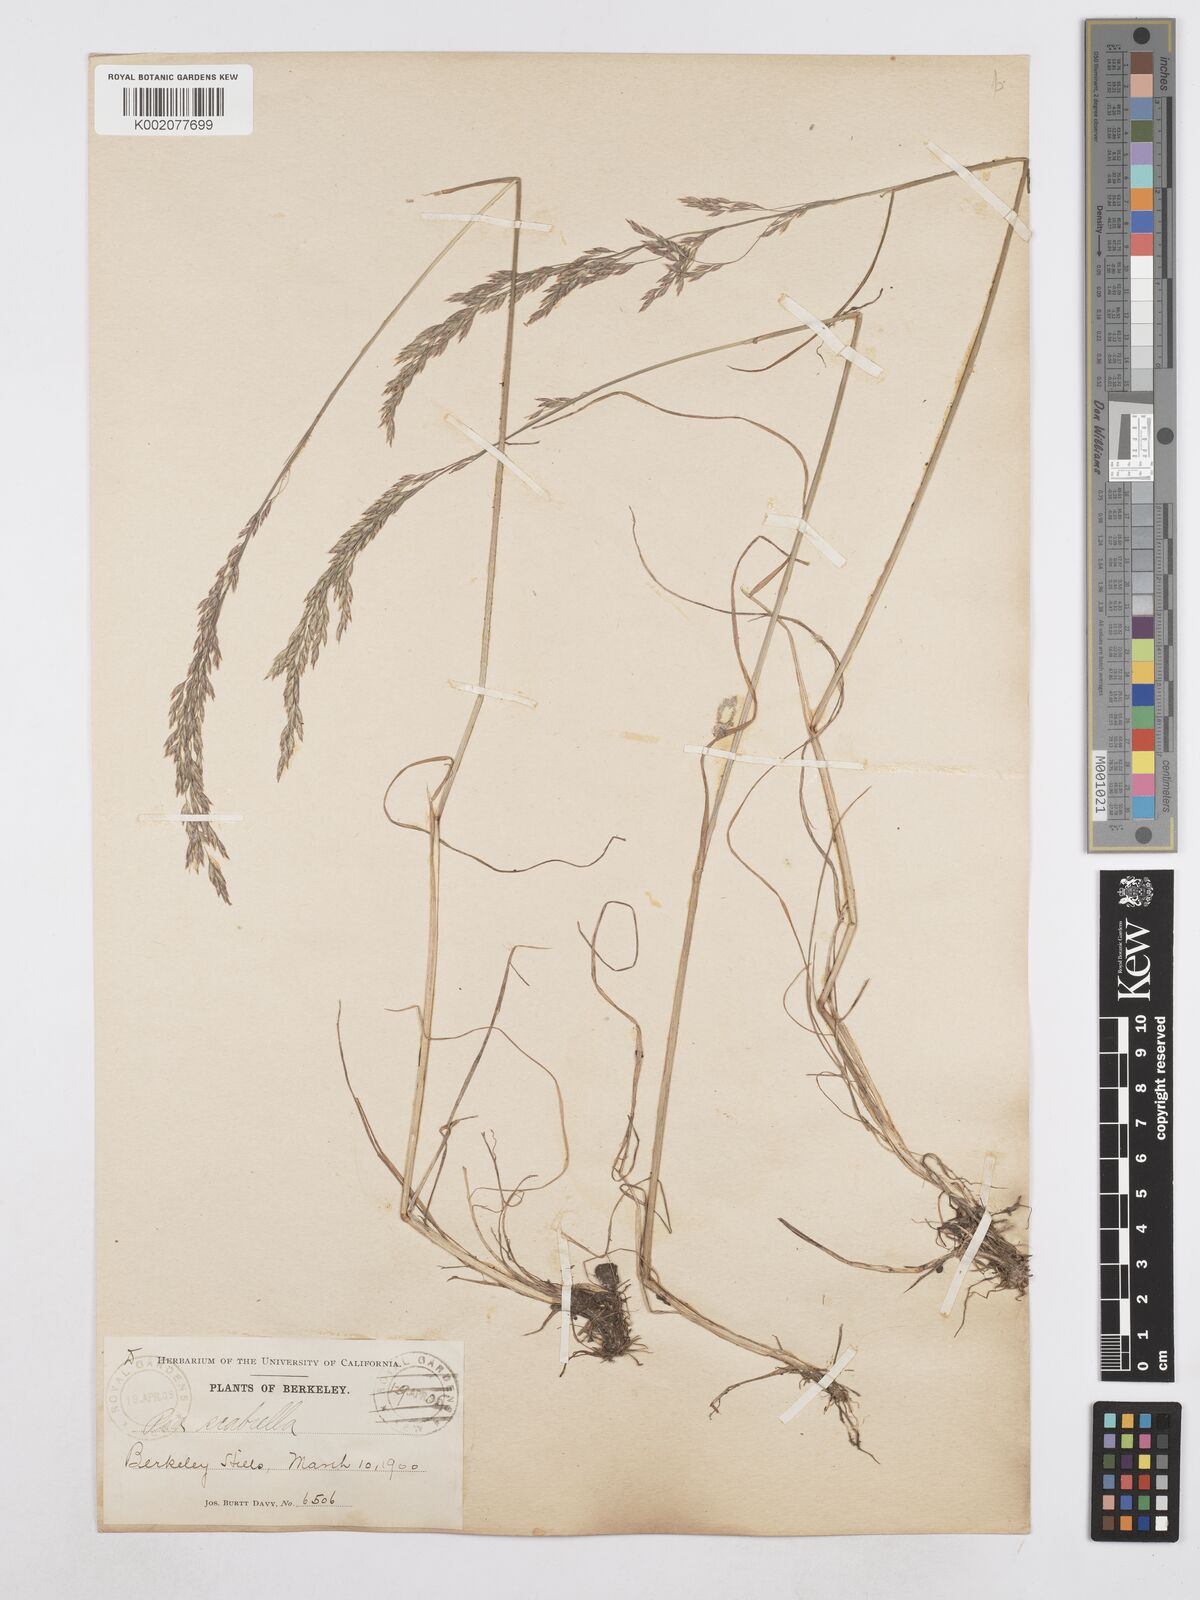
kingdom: Plantae
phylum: Tracheophyta
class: Liliopsida
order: Poales
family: Poaceae
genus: Poa
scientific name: Poa secunda
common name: Sandberg bluegrass
